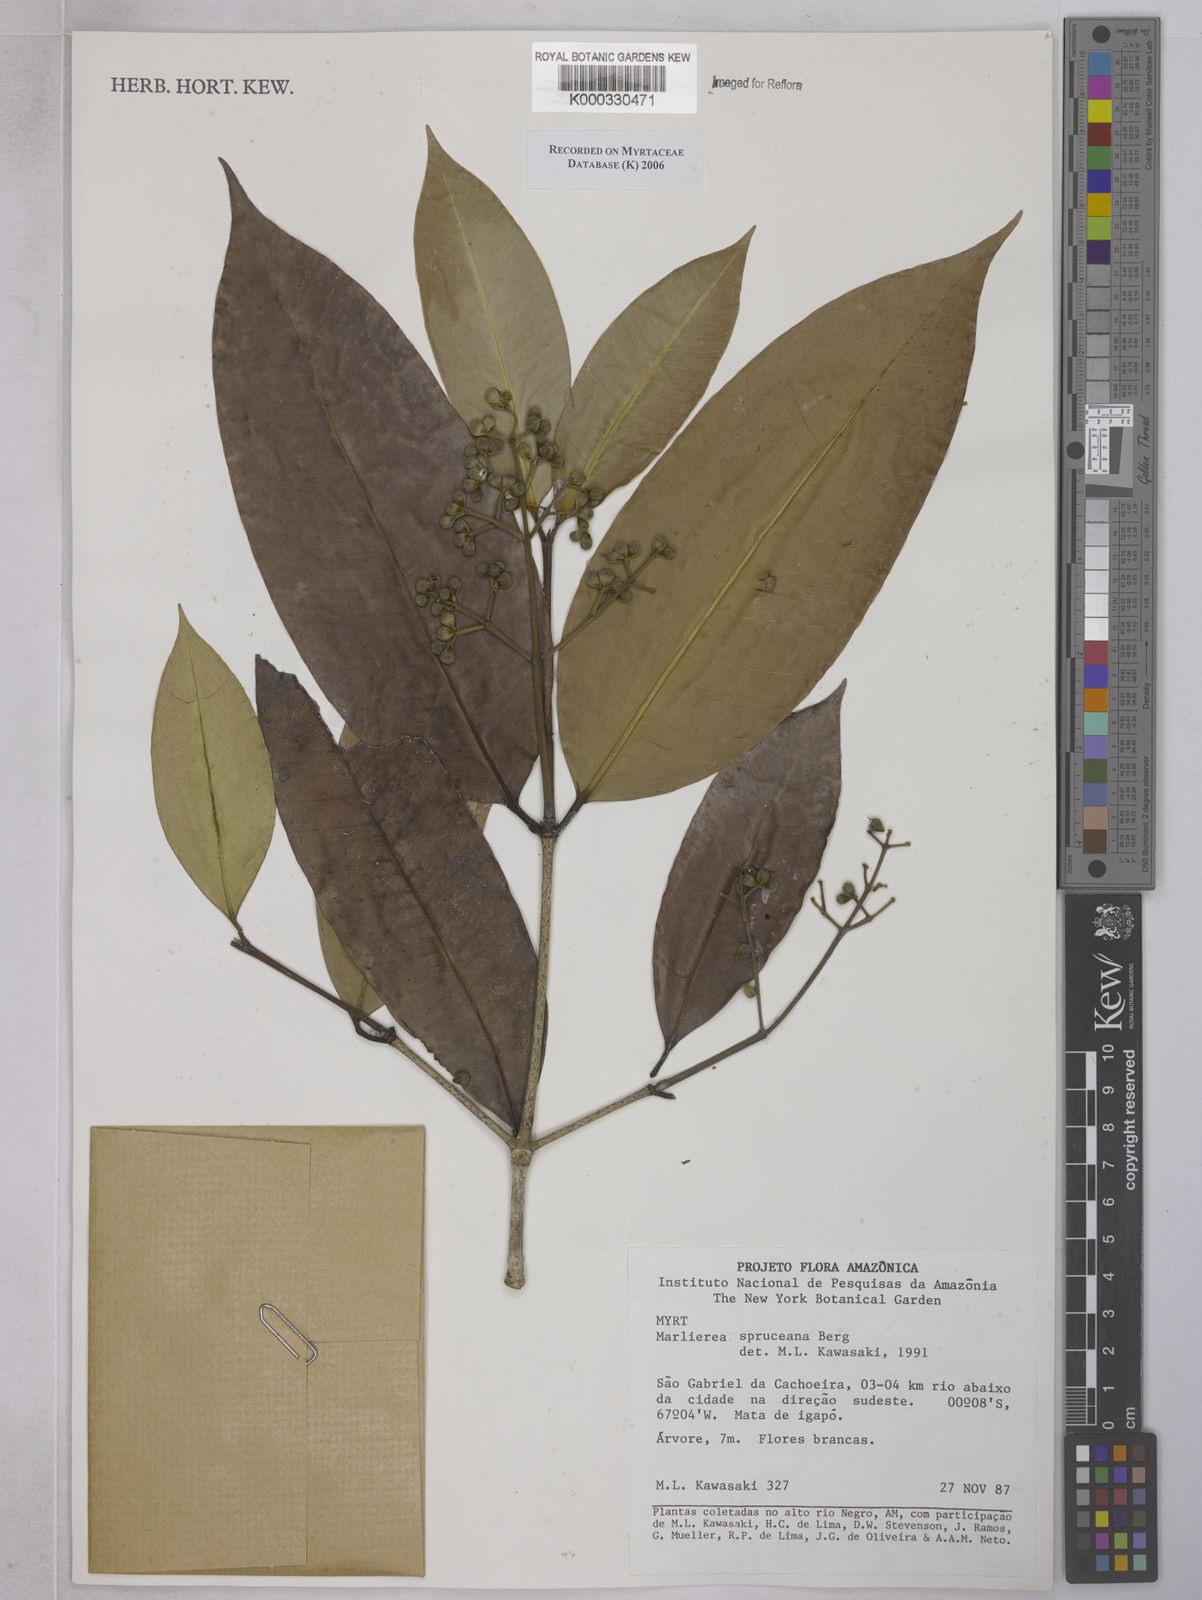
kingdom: Plantae
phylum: Tracheophyta
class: Magnoliopsida
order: Myrtales
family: Myrtaceae
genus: Myrcia
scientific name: Myrcia argentigemma
